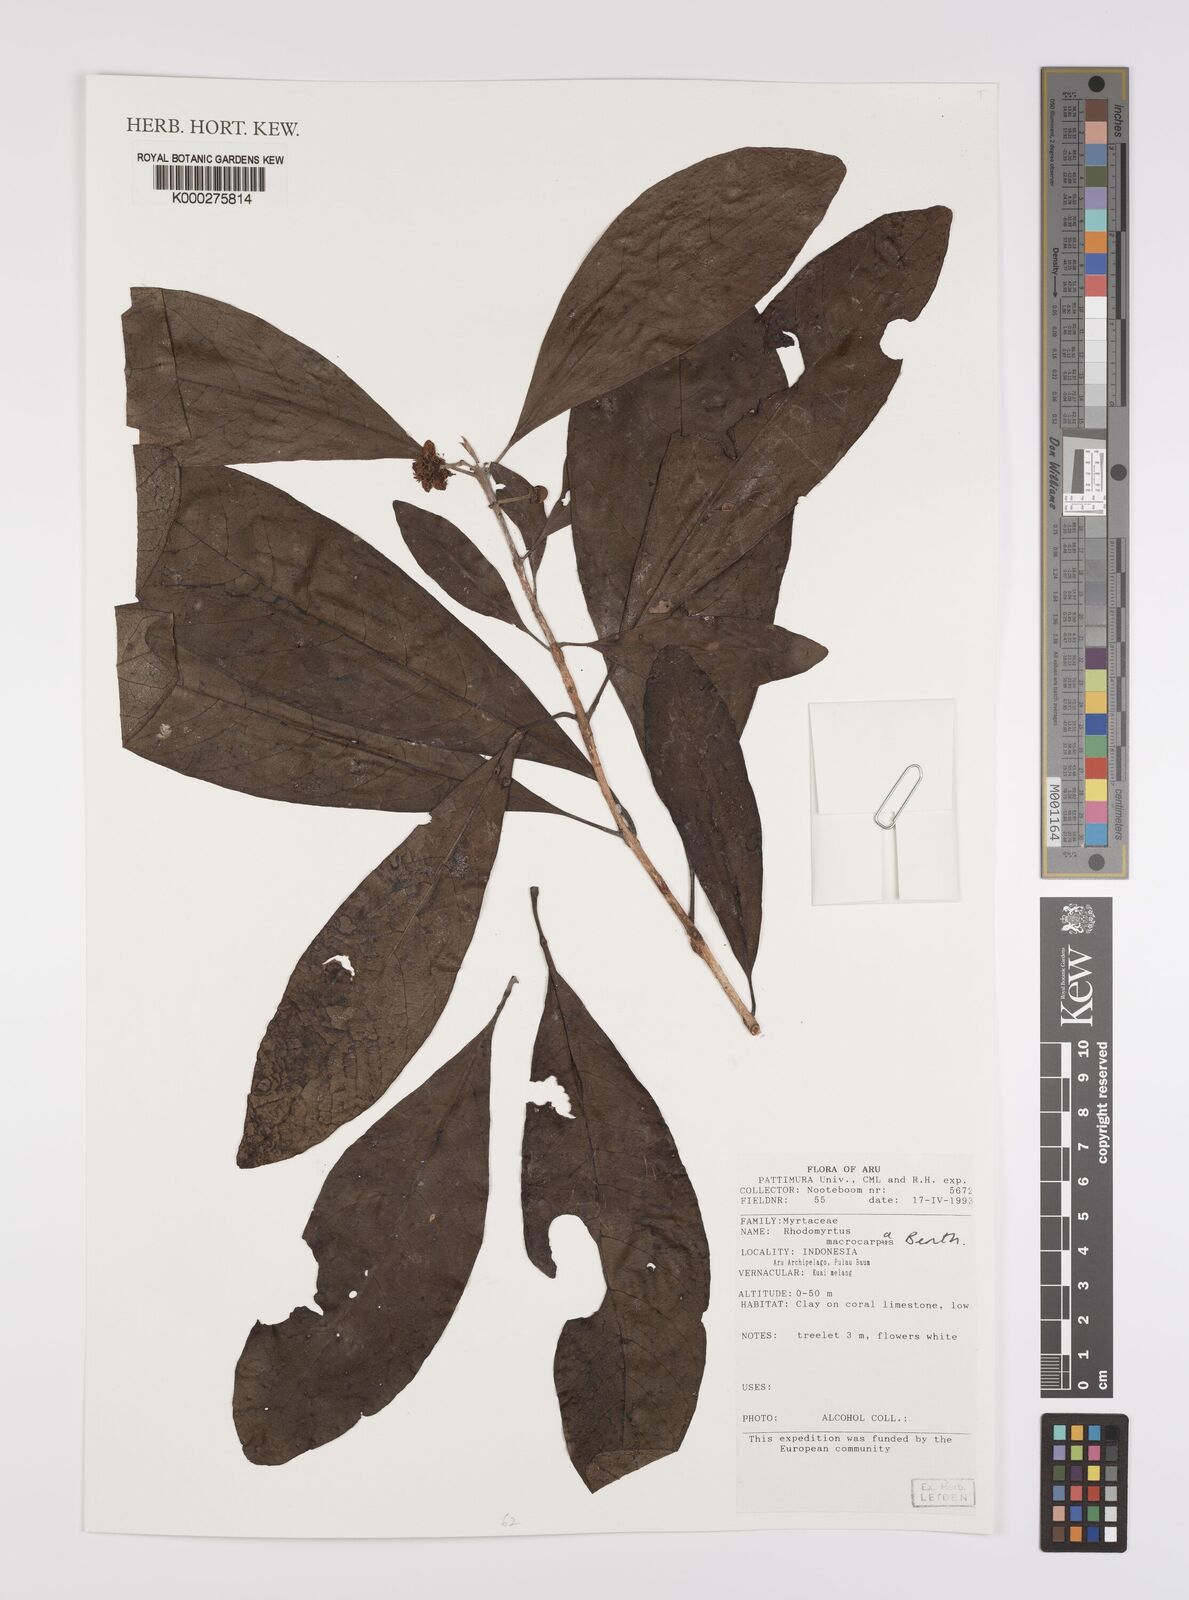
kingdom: Plantae
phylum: Tracheophyta
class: Magnoliopsida
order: Myrtales
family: Myrtaceae
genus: Rhodomyrtus
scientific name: Rhodomyrtus macrocarpa
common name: Finger-cherry
